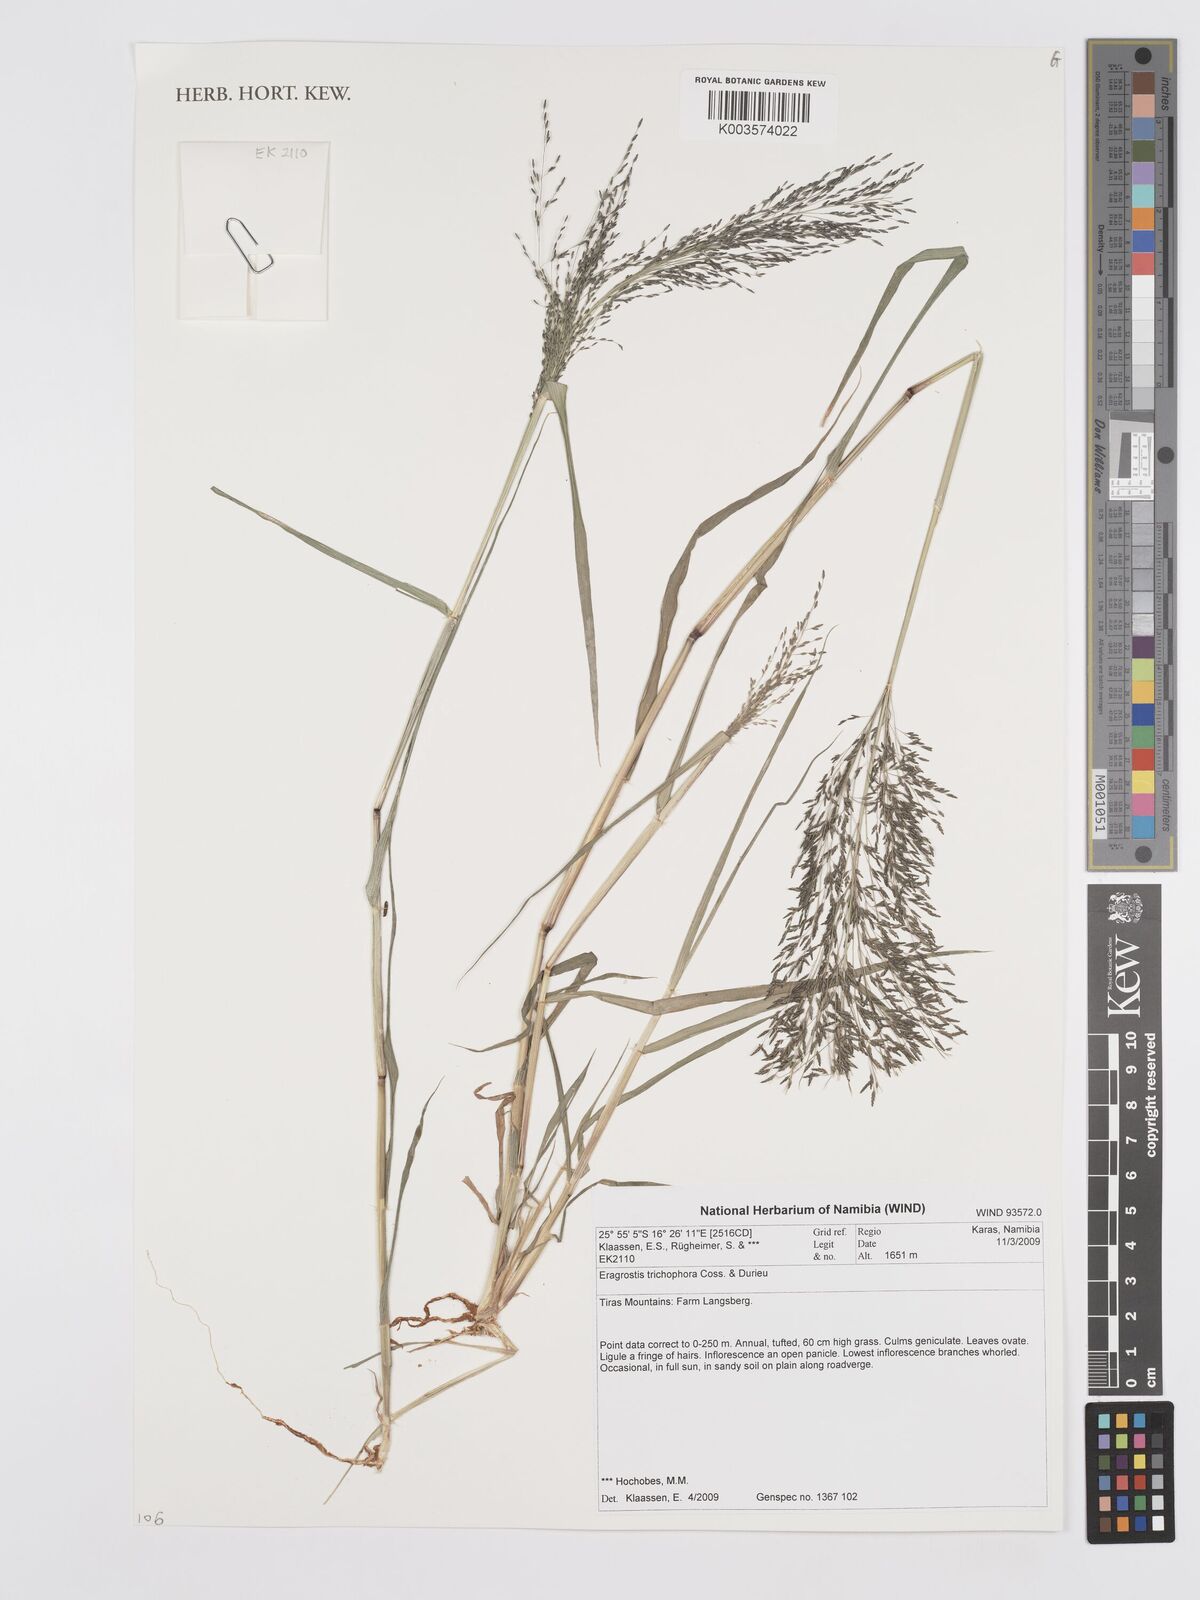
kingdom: Plantae
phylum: Tracheophyta
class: Liliopsida
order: Poales
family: Poaceae
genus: Eragrostis
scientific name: Eragrostis cylindriflora
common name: Cylinderflower lovegrass
